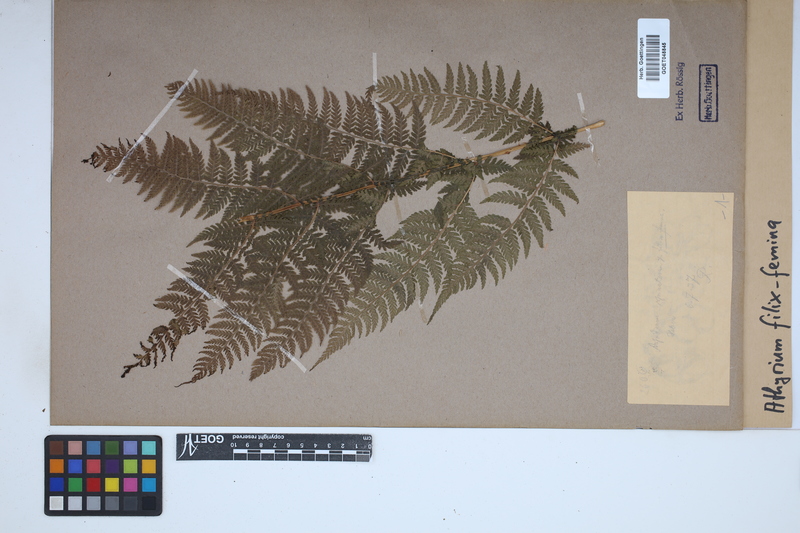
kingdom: Plantae
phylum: Tracheophyta
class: Polypodiopsida
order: Polypodiales
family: Athyriaceae
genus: Athyrium
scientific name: Athyrium filix-femina
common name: Lady fern
